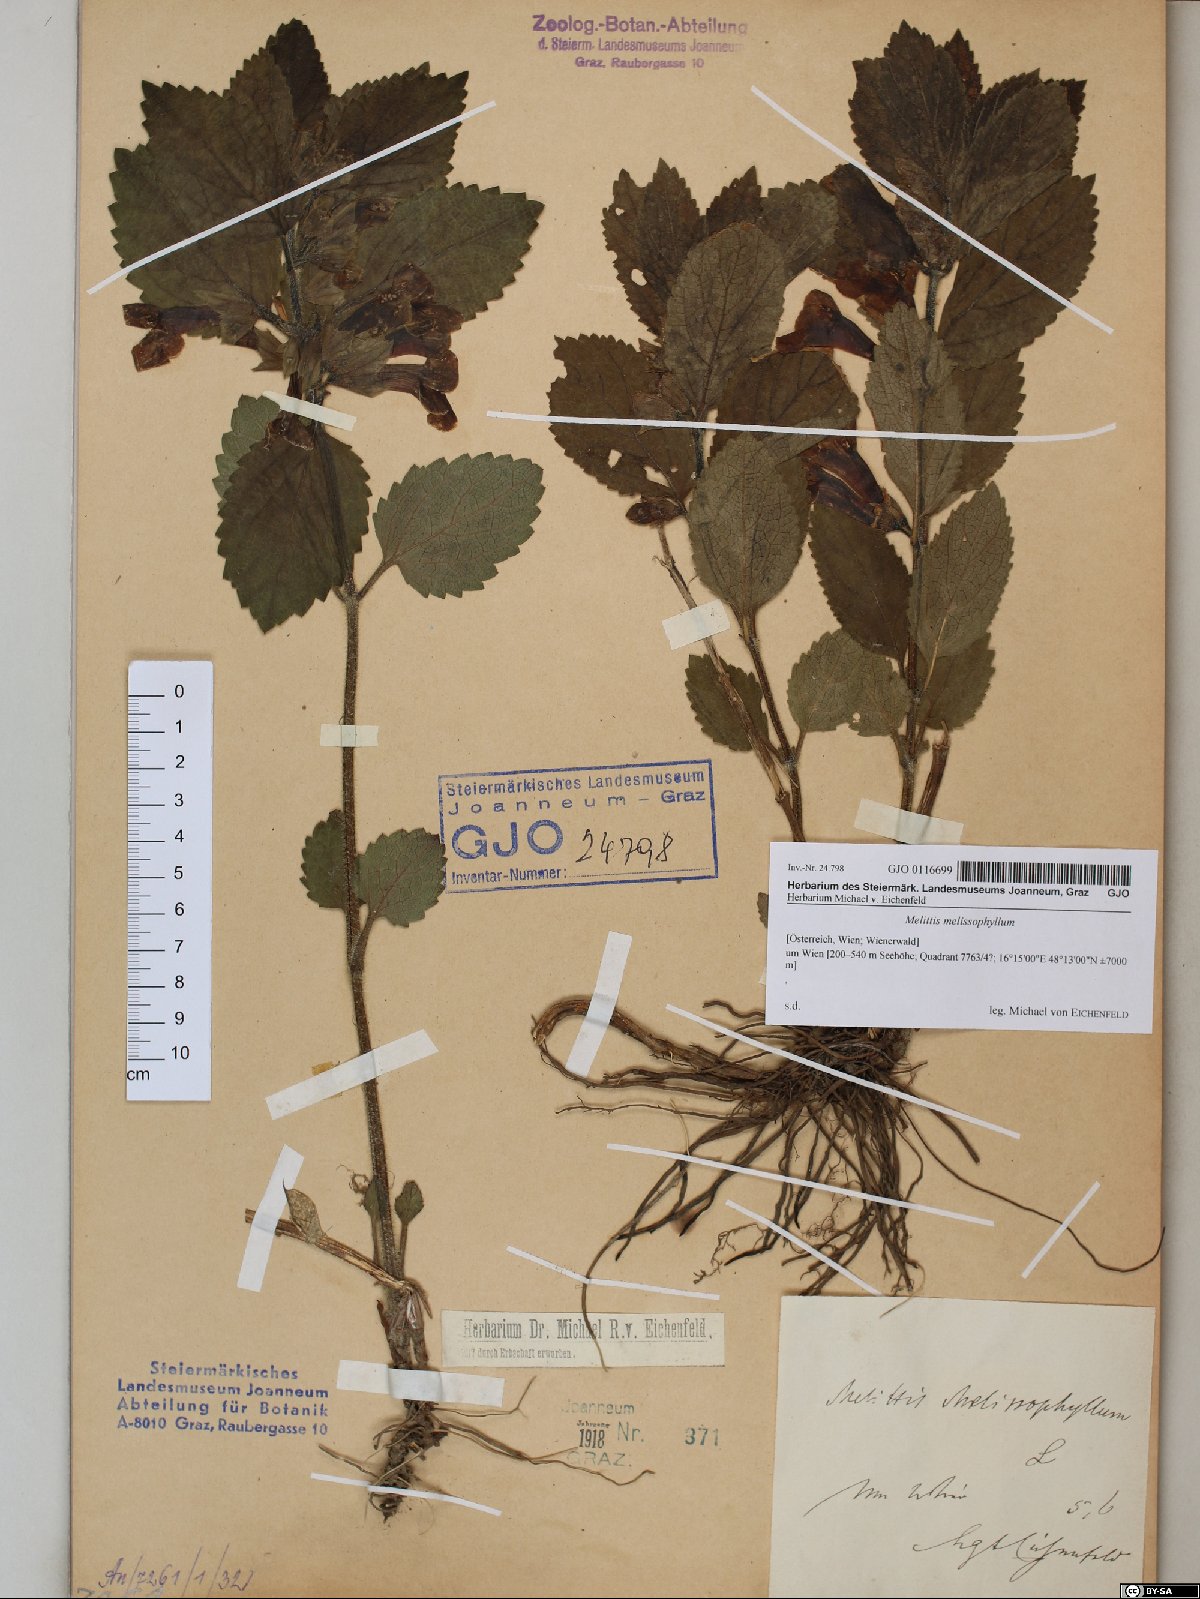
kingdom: Plantae
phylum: Tracheophyta
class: Magnoliopsida
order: Lamiales
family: Lamiaceae
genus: Melittis
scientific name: Melittis melissophyllum
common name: Bastard balm
